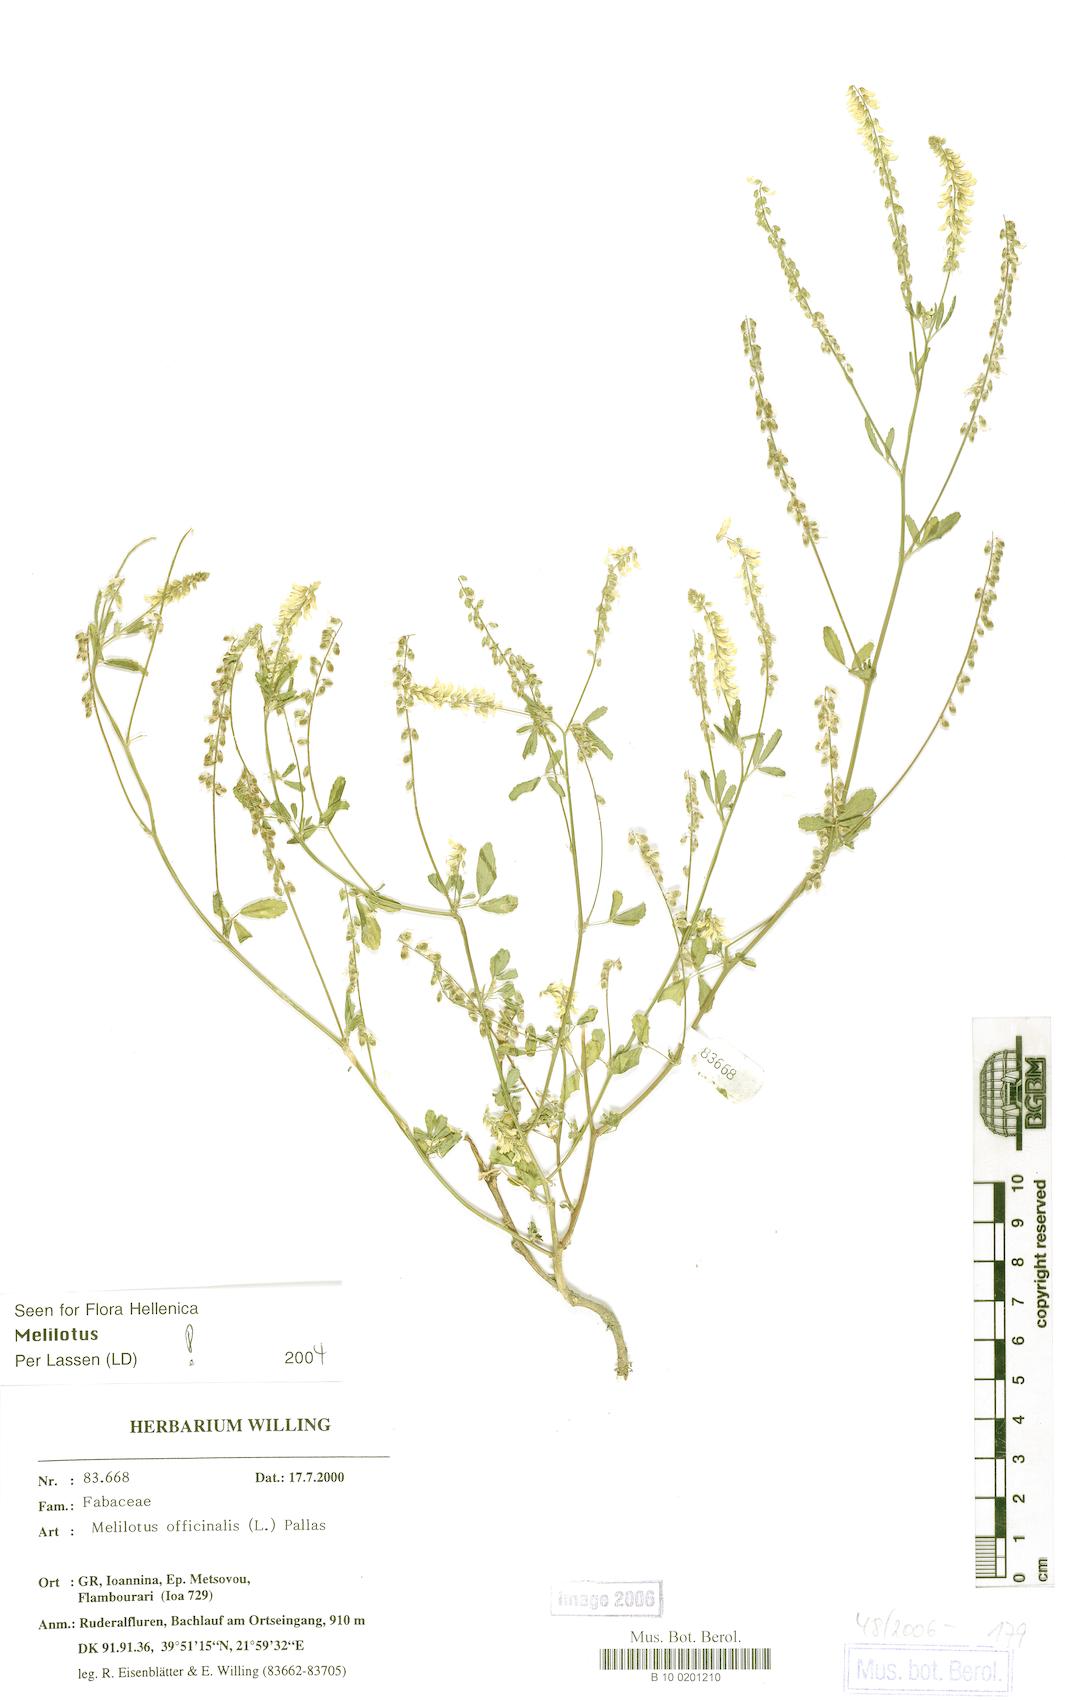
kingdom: Plantae
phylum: Tracheophyta
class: Magnoliopsida
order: Fabales
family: Fabaceae
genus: Melilotus
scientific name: Melilotus officinalis
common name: Sweetclover
